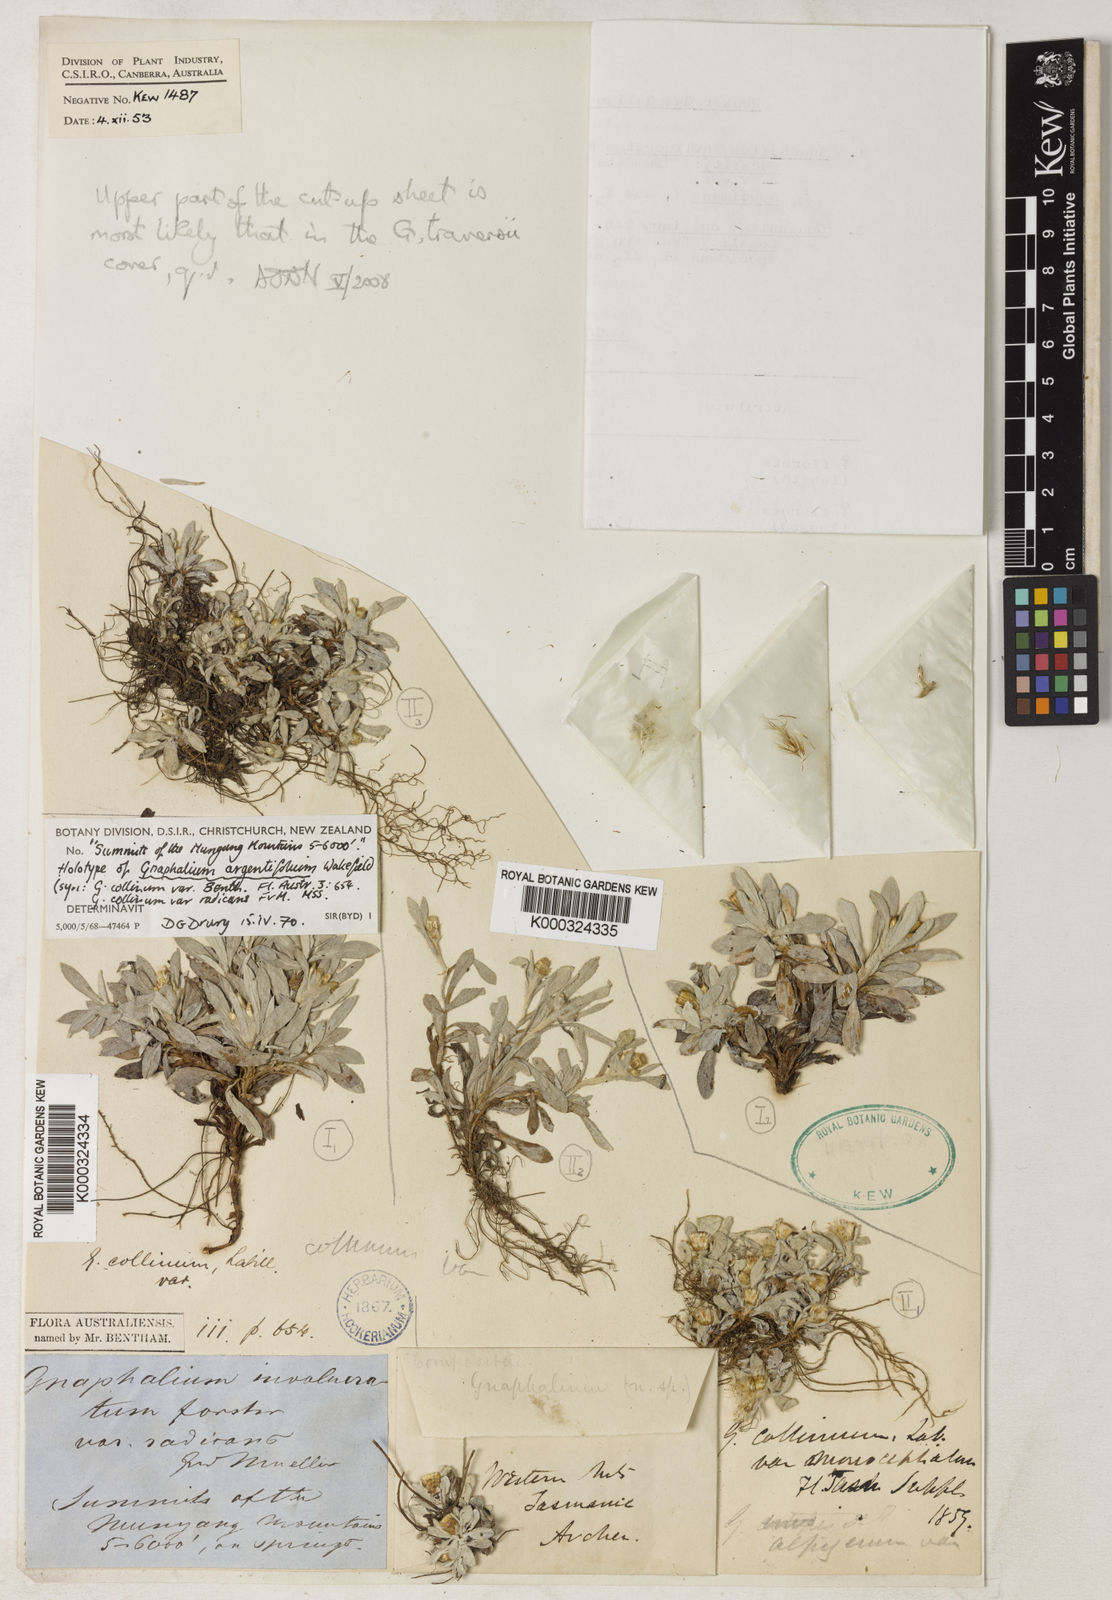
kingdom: Plantae
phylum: Tracheophyta
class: Magnoliopsida
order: Asterales
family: Asteraceae
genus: Euchiton
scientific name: Euchiton japonicus
